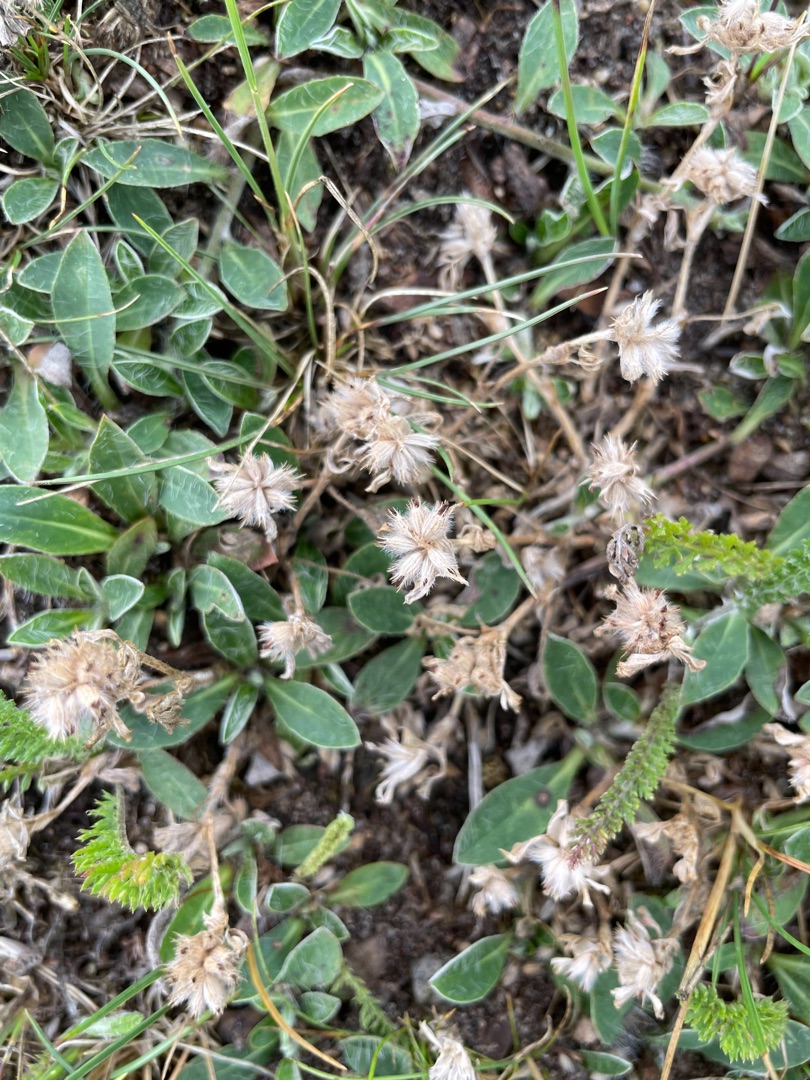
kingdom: Plantae
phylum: Tracheophyta
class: Magnoliopsida
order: Fabales
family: Fabaceae
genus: Trifolium
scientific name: Trifolium striatum
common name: Stribet kløver
